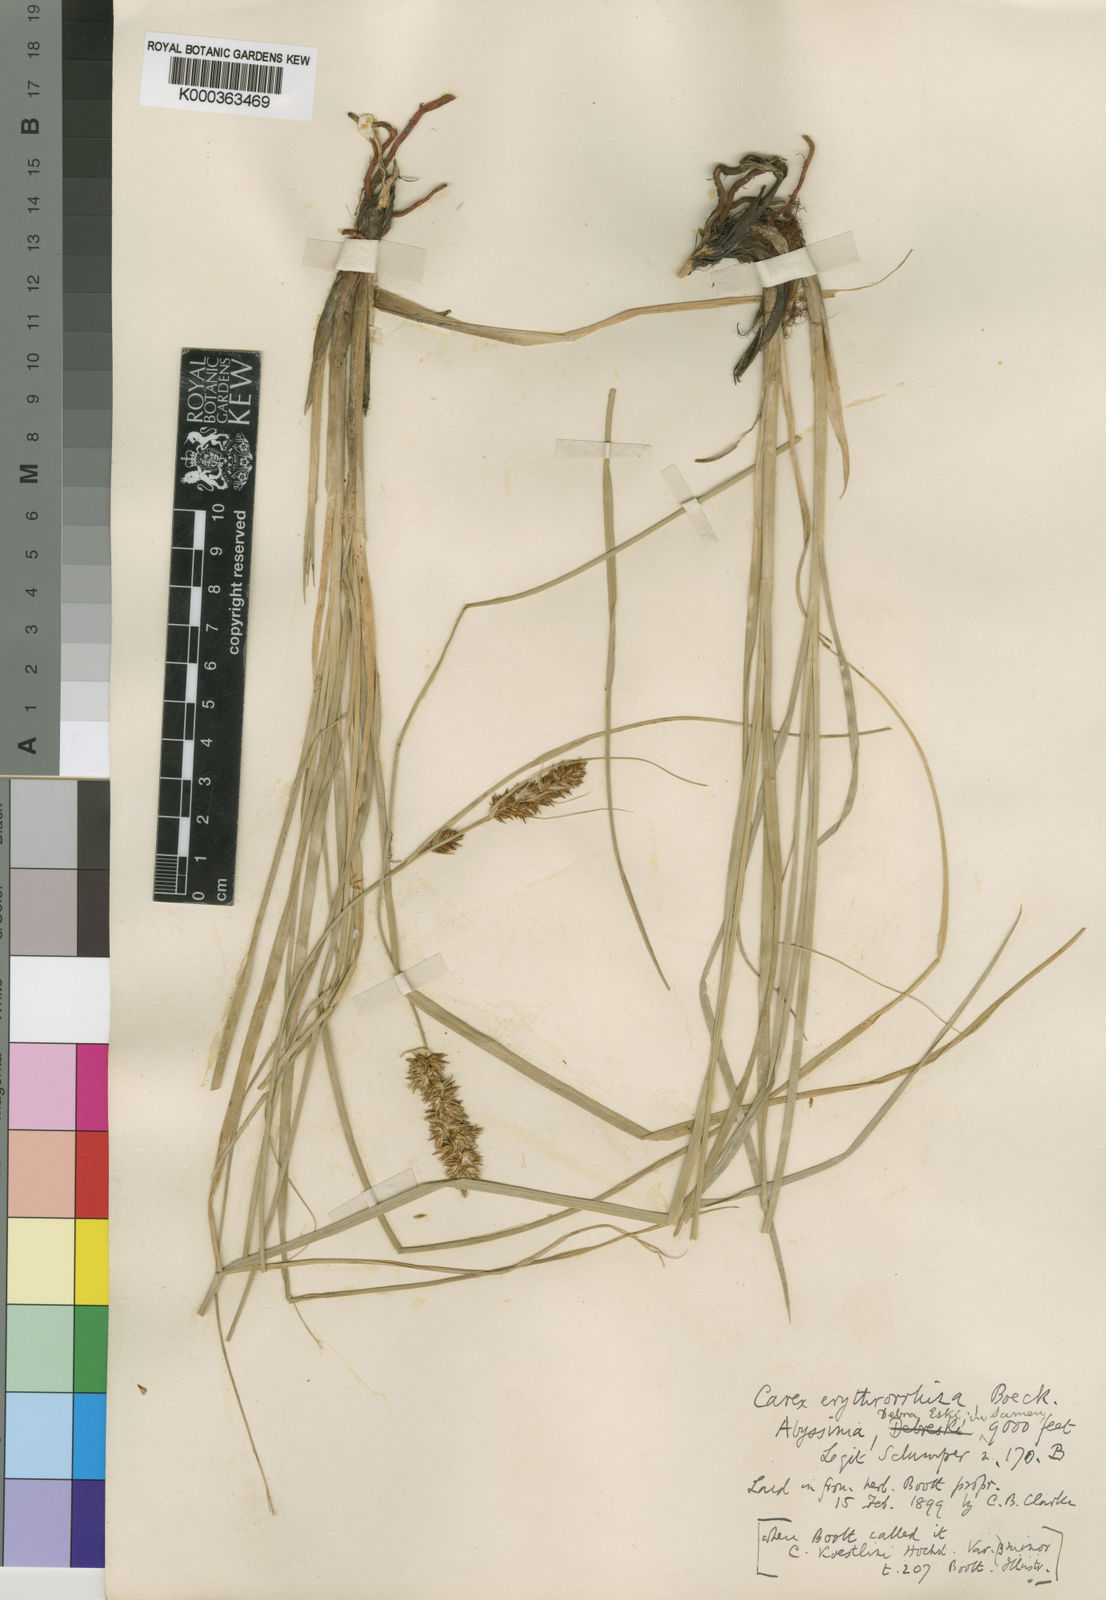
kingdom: Plantae
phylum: Tracheophyta
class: Liliopsida
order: Poales
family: Cyperaceae
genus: Carex
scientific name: Carex erythrorrhiza
